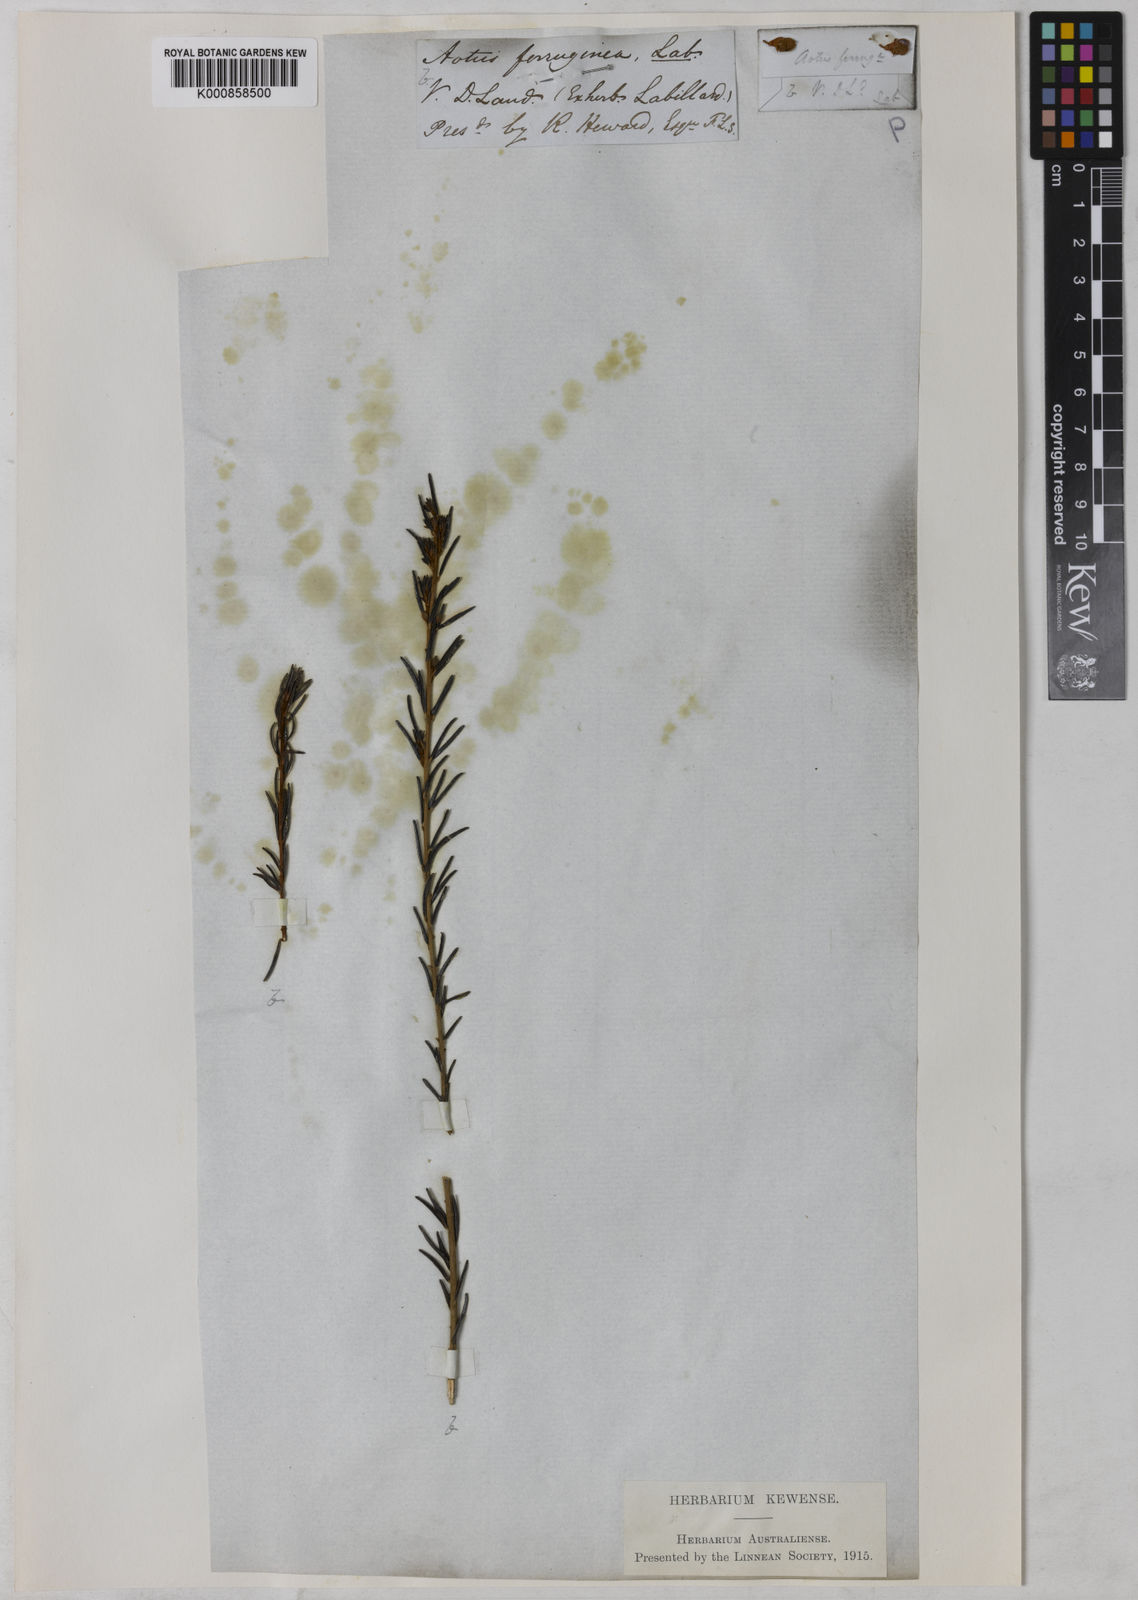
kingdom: Plantae
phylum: Tracheophyta
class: Magnoliopsida
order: Fabales
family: Fabaceae
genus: Aotus
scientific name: Aotus ericoides
